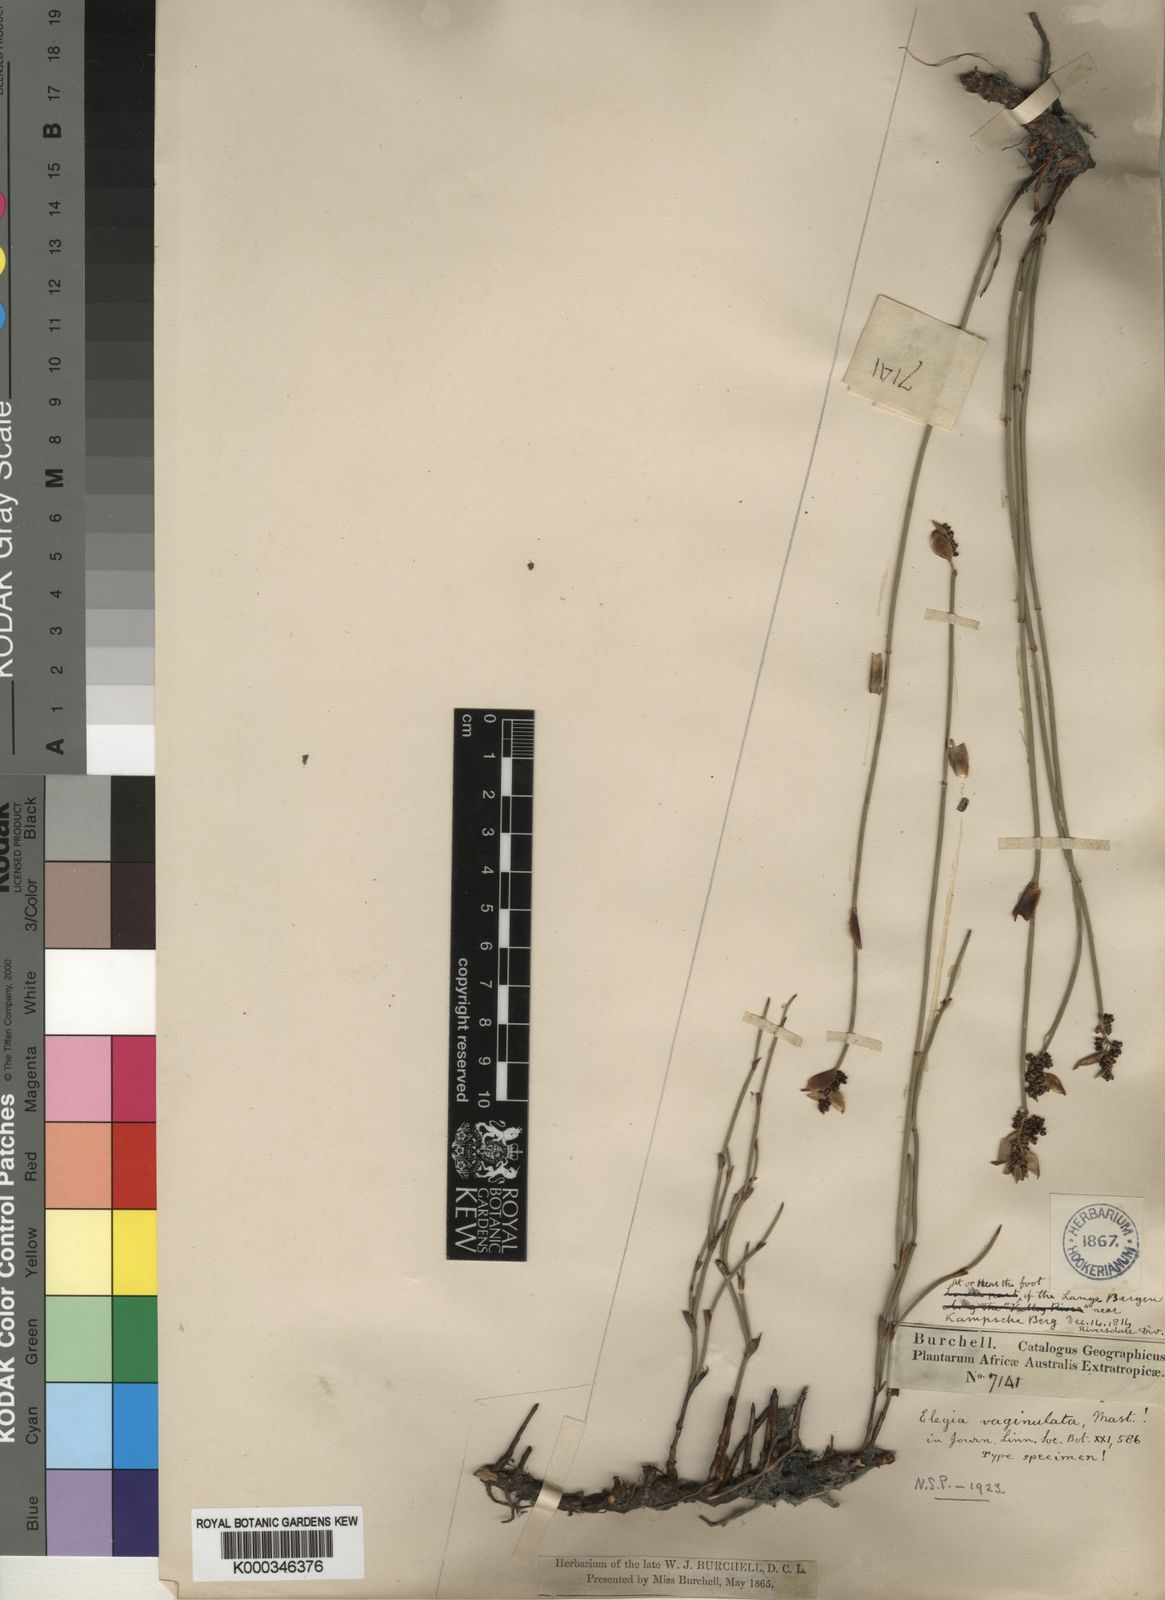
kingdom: Plantae
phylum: Tracheophyta
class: Liliopsida
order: Poales
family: Restionaceae
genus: Elegia
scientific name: Elegia vaginulata
